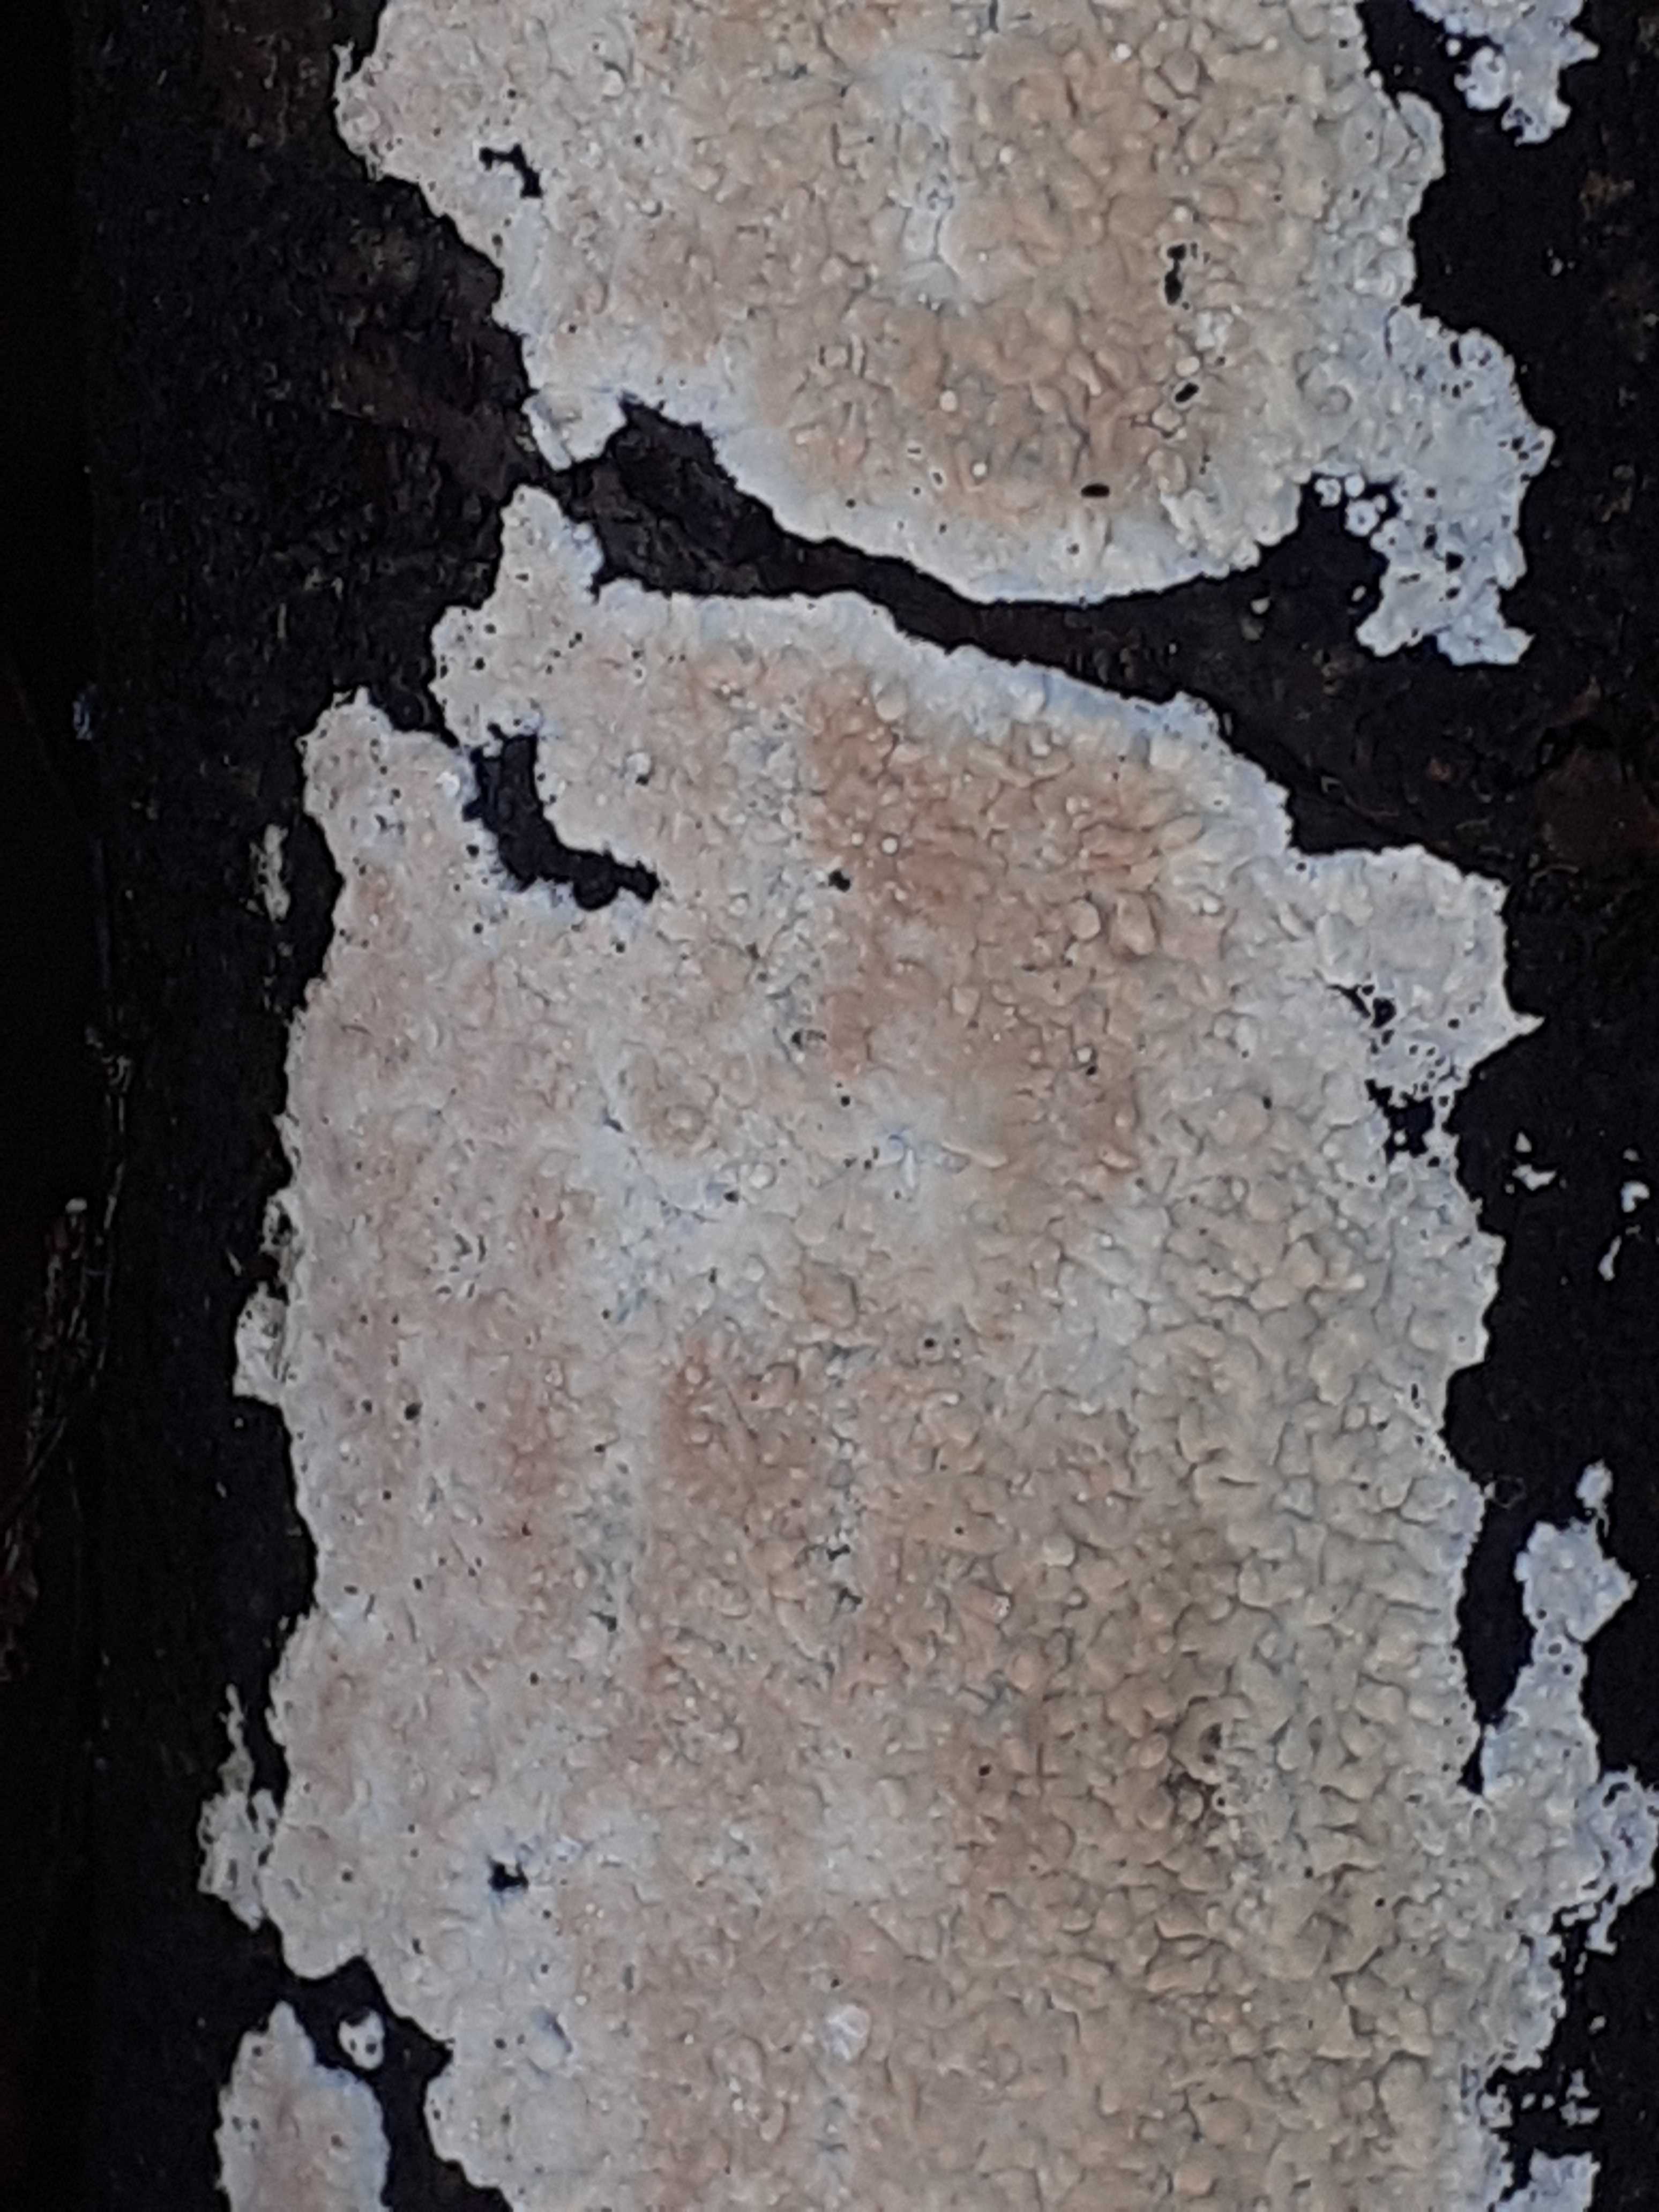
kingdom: Fungi
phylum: Basidiomycota
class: Agaricomycetes
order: Agaricales
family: Physalacriaceae
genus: Cylindrobasidium
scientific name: Cylindrobasidium evolvens
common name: sprækkehinde
